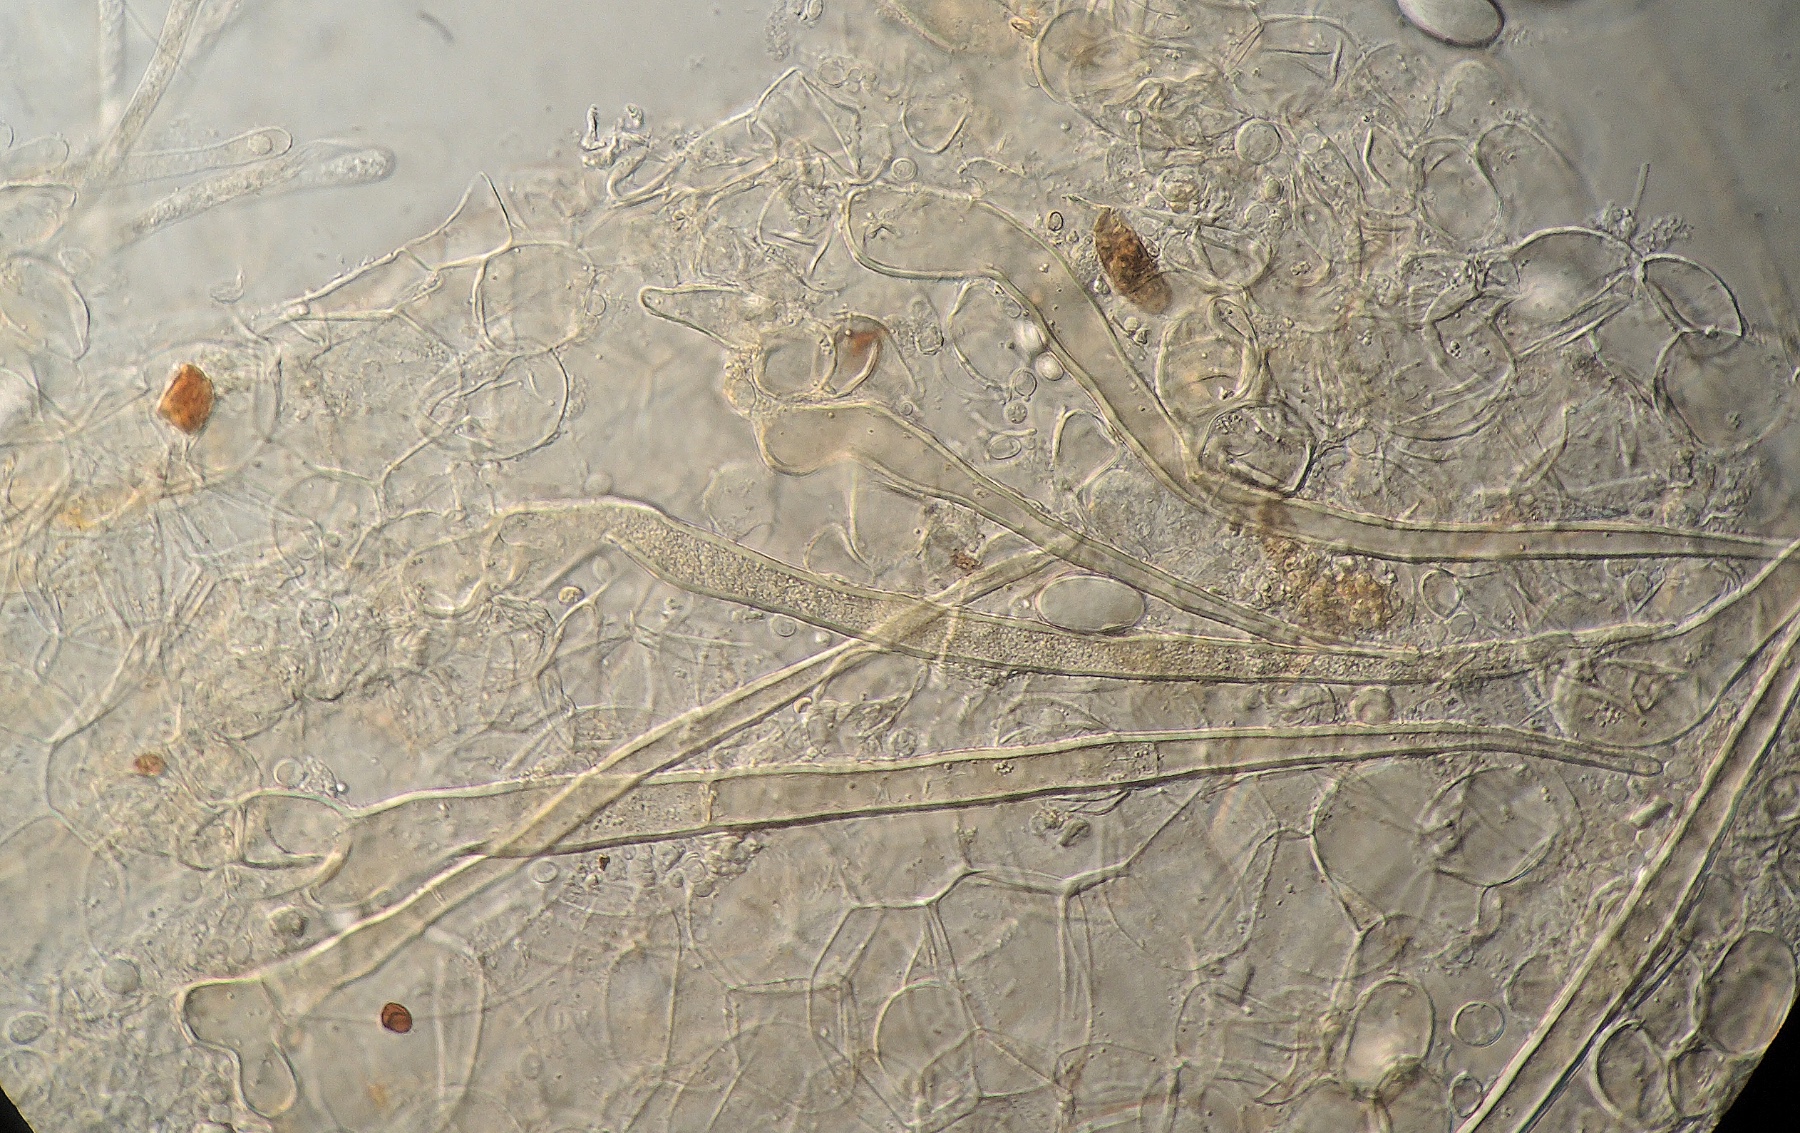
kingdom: Fungi
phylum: Ascomycota
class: Pezizomycetes
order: Pezizales
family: Pyronemataceae
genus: Cheilymenia
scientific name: Cheilymenia theleboloides
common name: glat hårbæger
